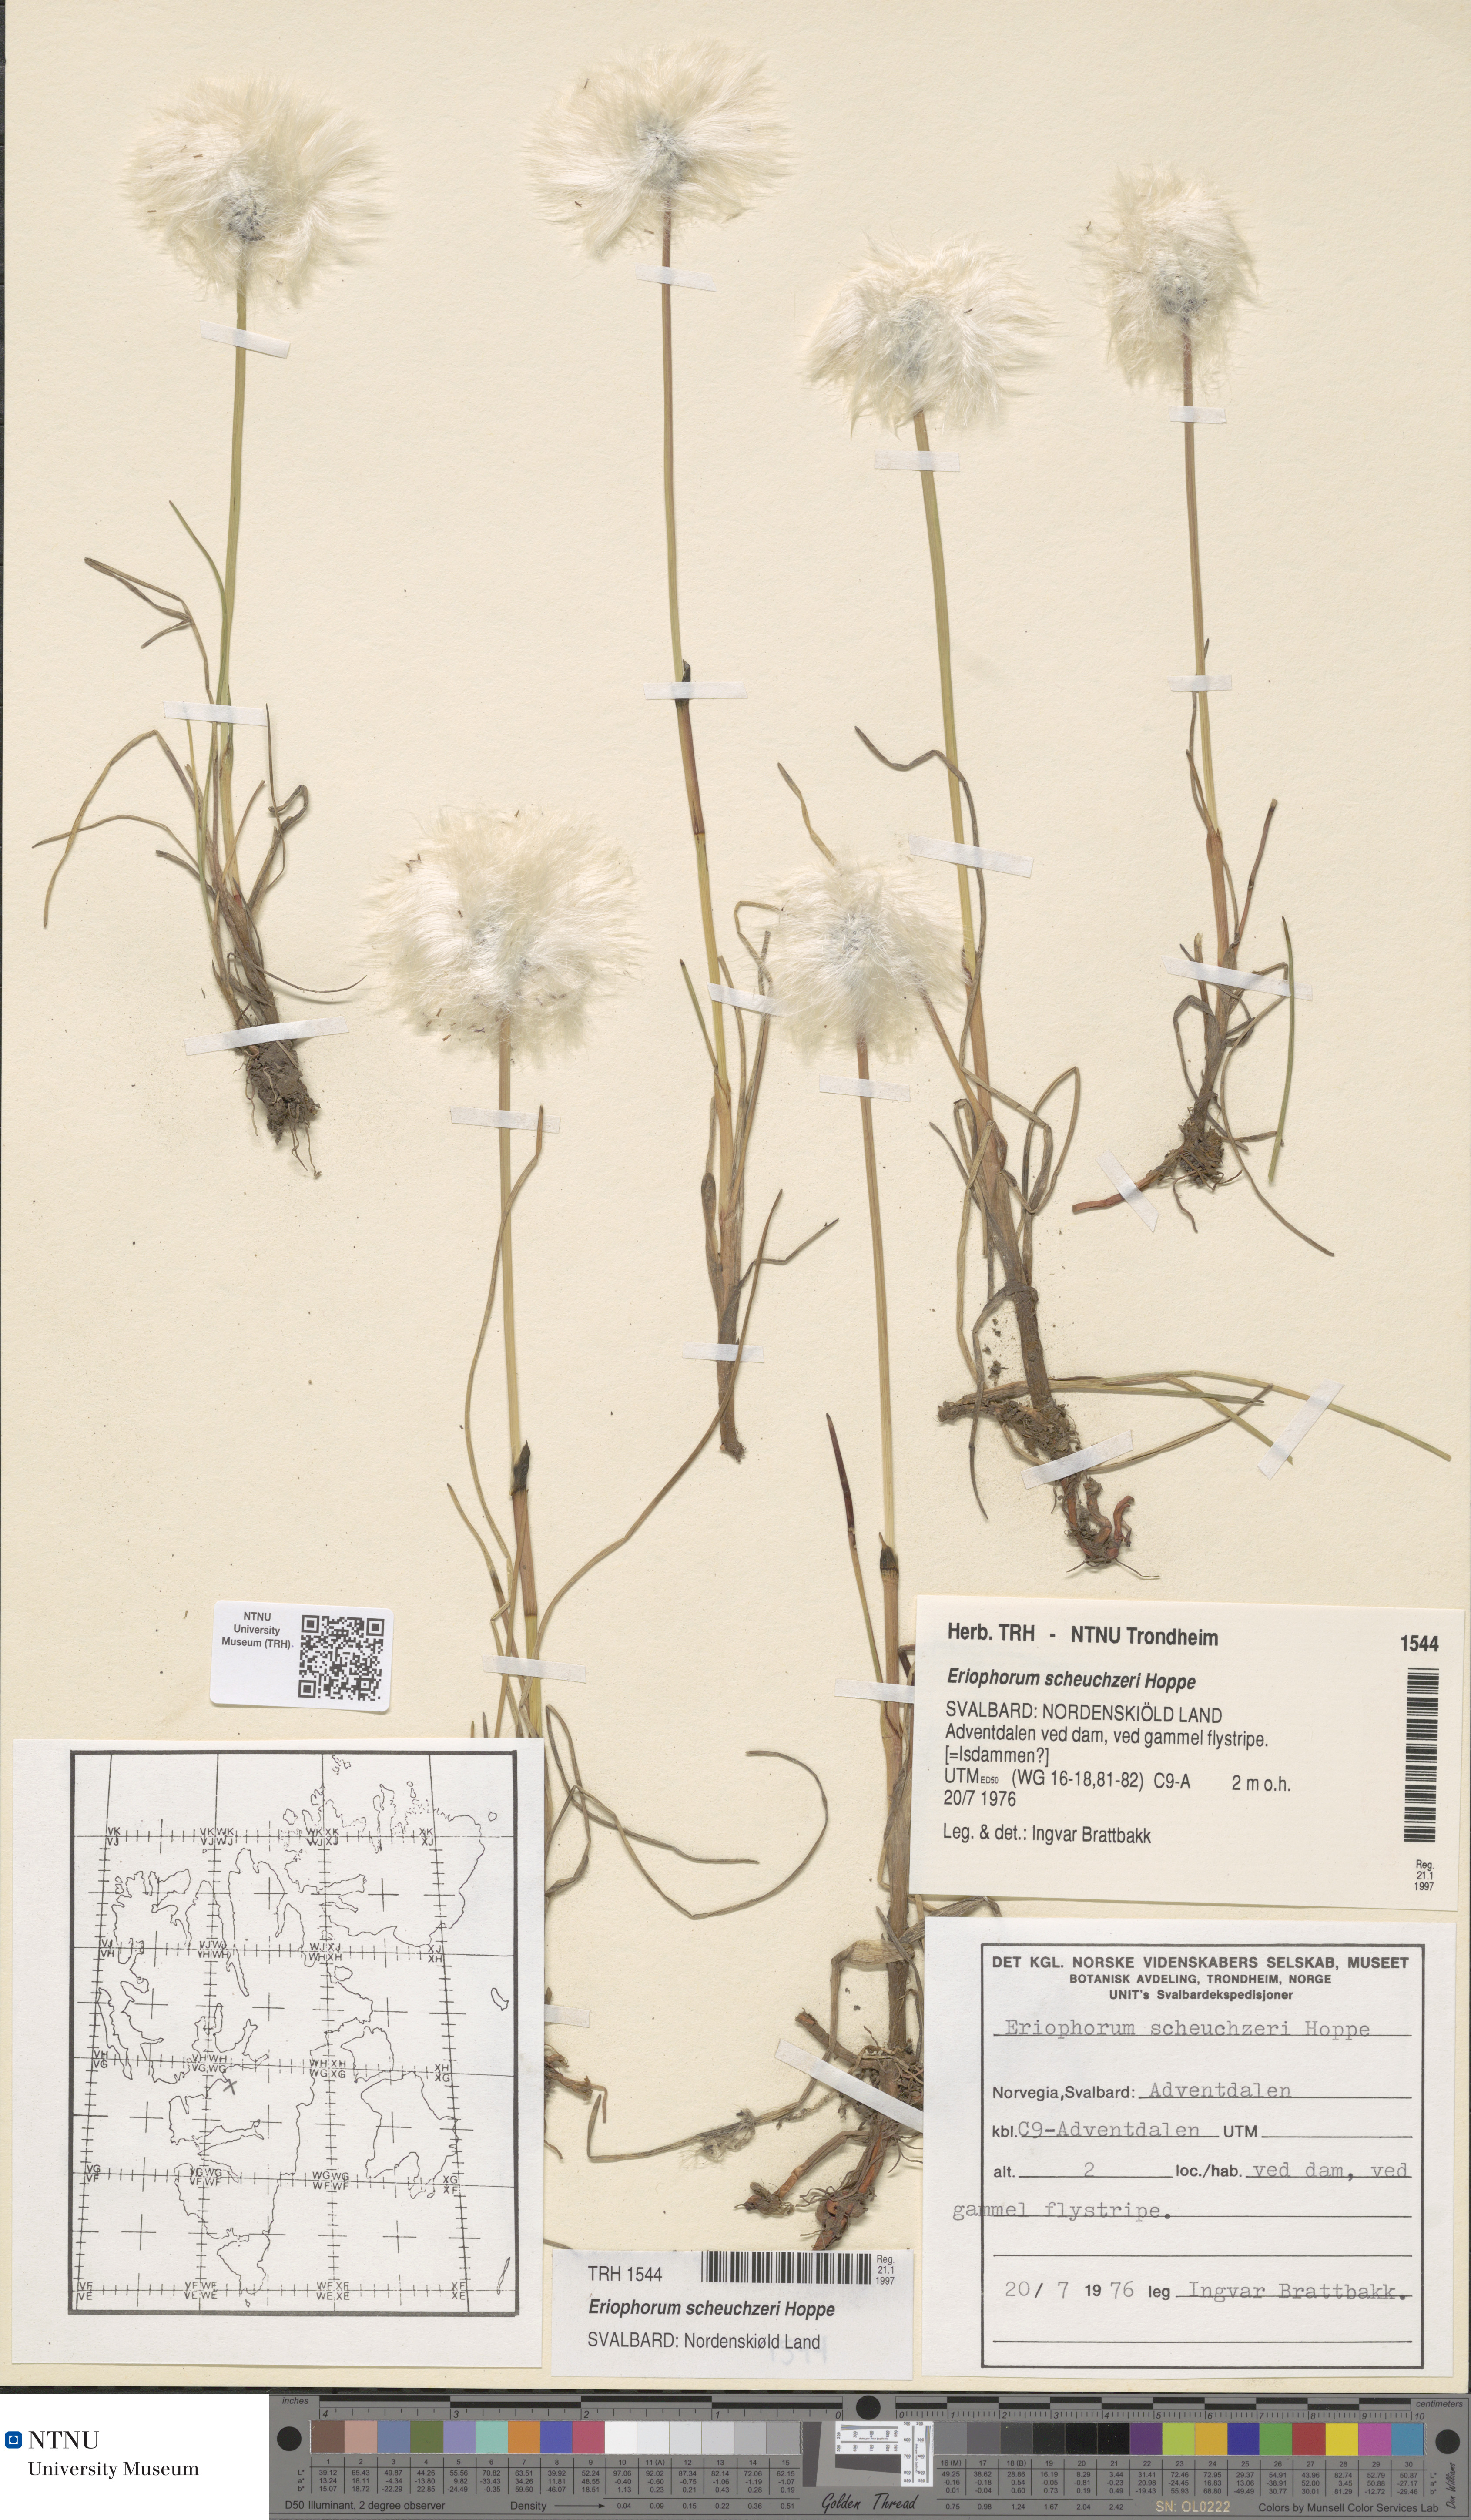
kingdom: Plantae
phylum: Tracheophyta
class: Liliopsida
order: Poales
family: Cyperaceae
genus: Eriophorum
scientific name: Eriophorum scheuchzeri
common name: Scheuchzer's cottongrass
